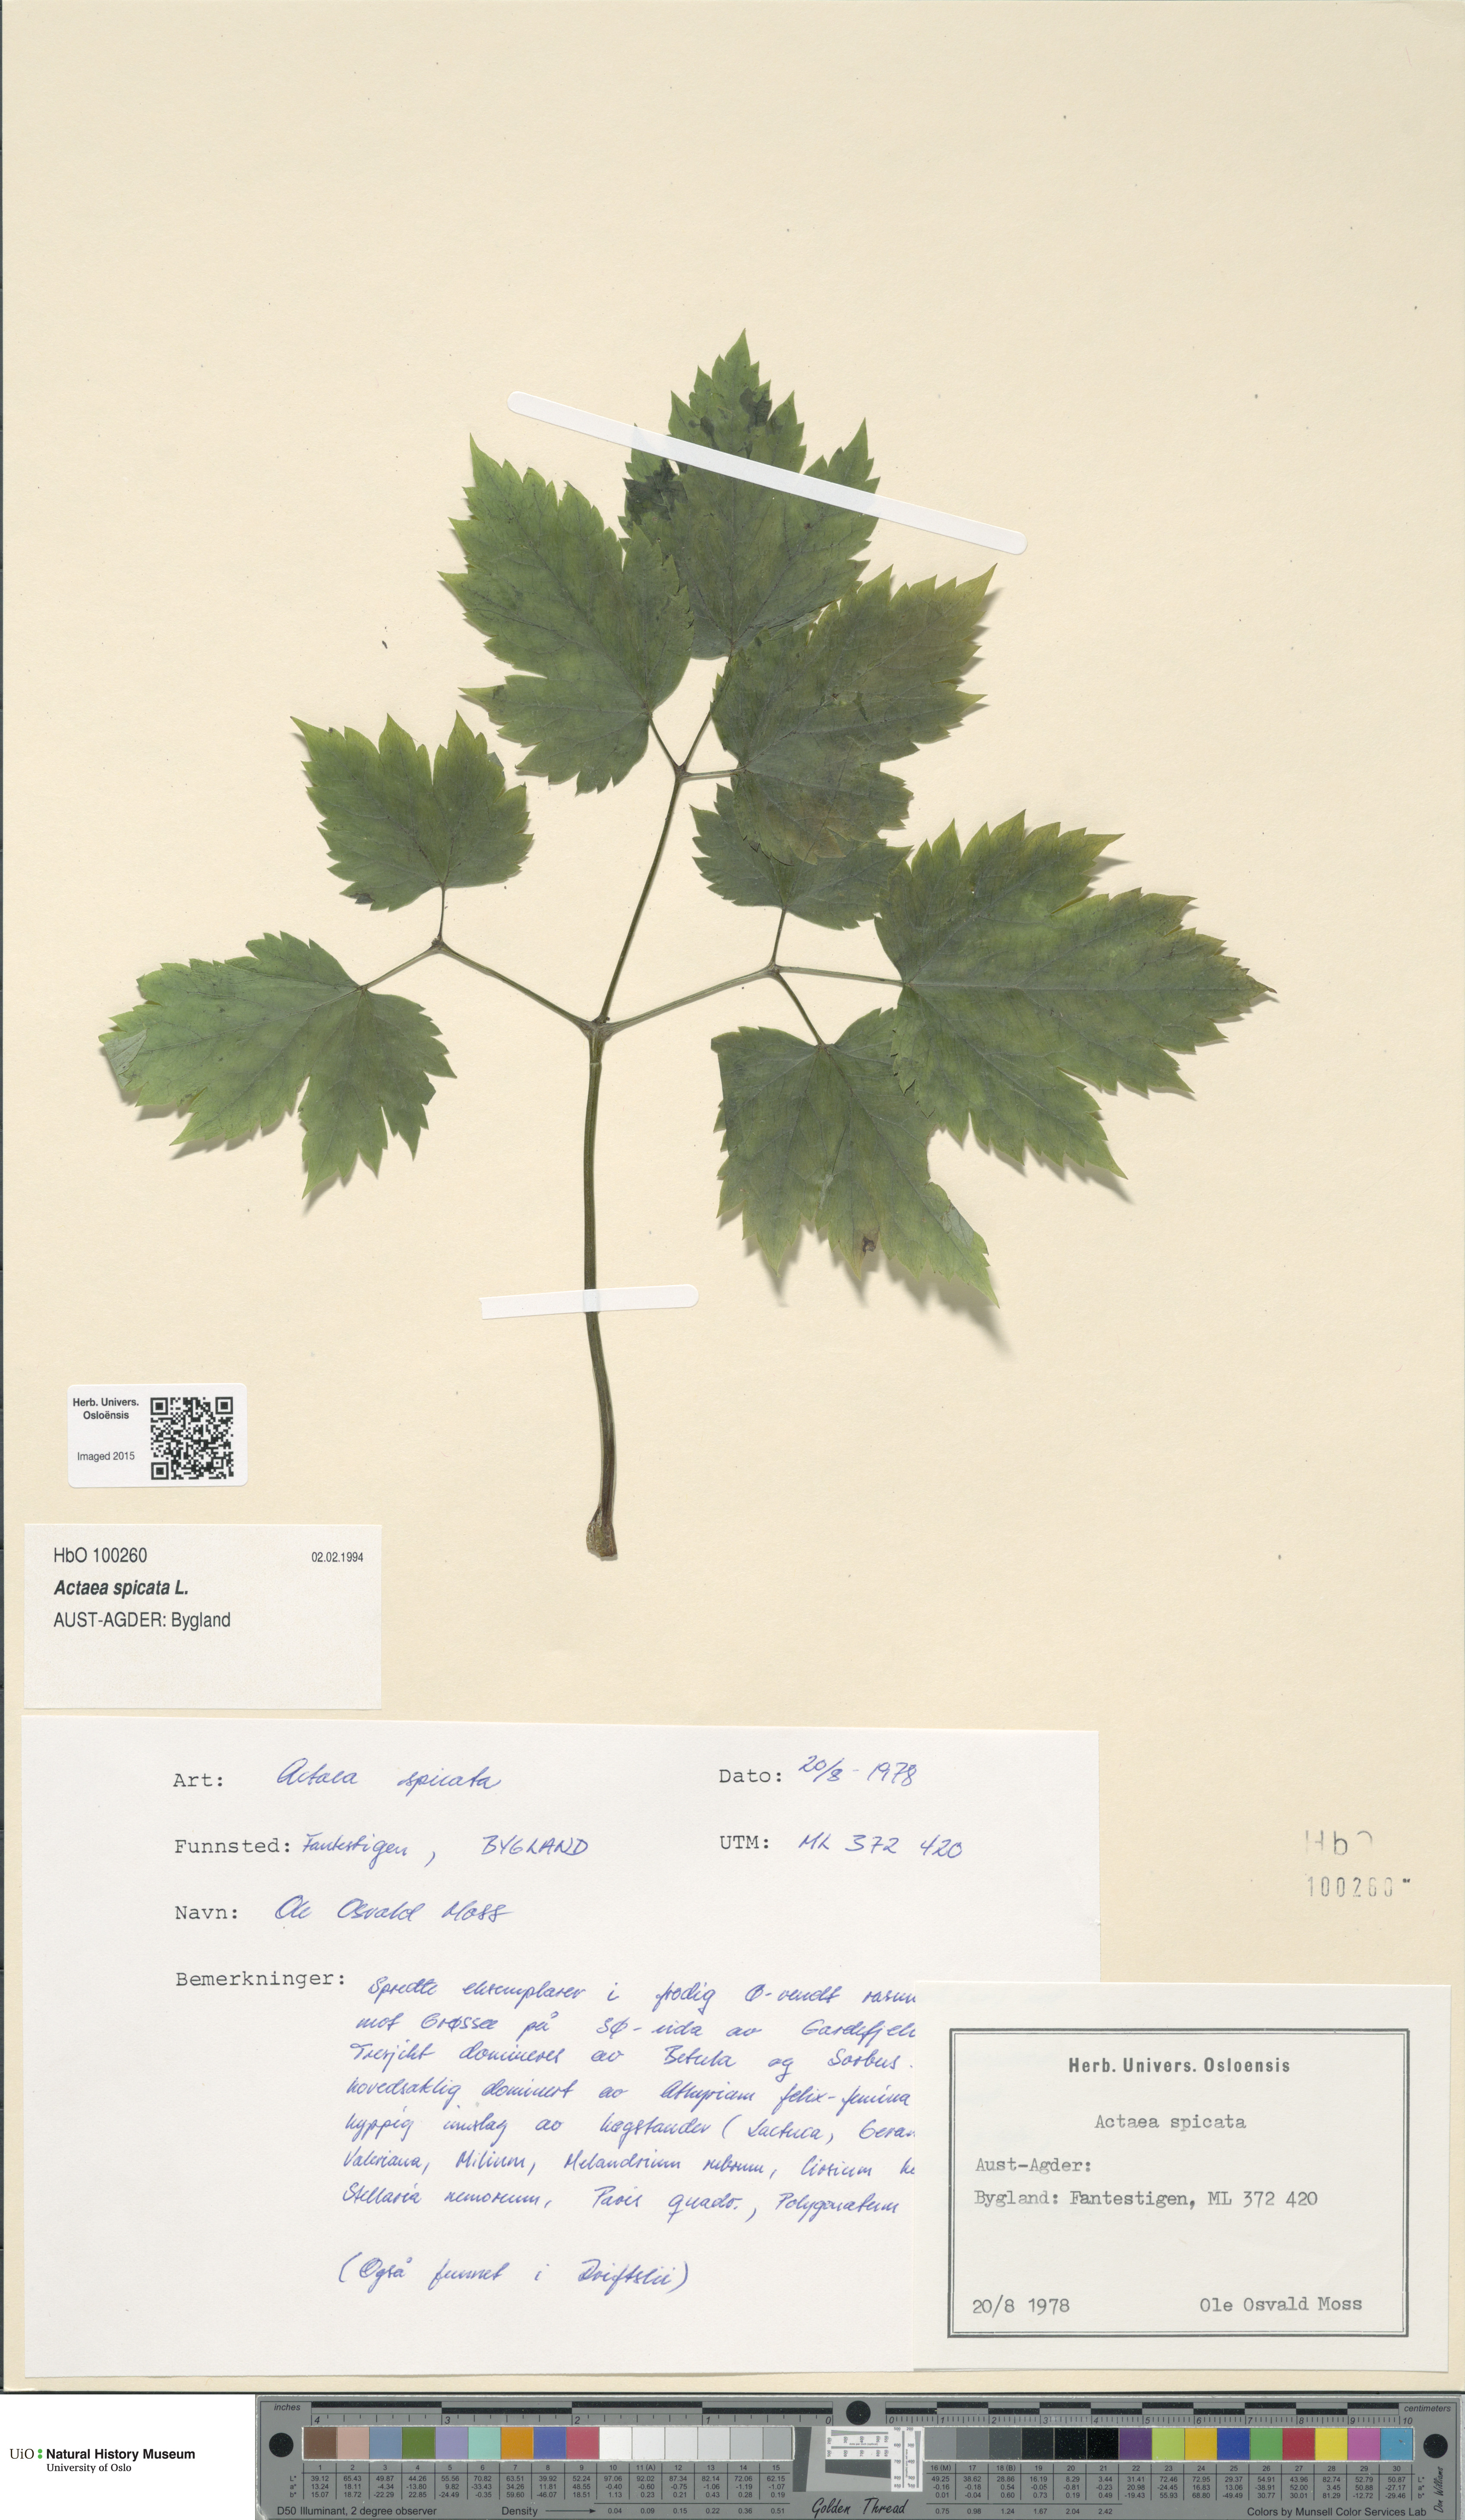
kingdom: Plantae
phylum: Tracheophyta
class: Magnoliopsida
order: Ranunculales
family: Ranunculaceae
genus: Actaea
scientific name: Actaea spicata
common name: Baneberry
